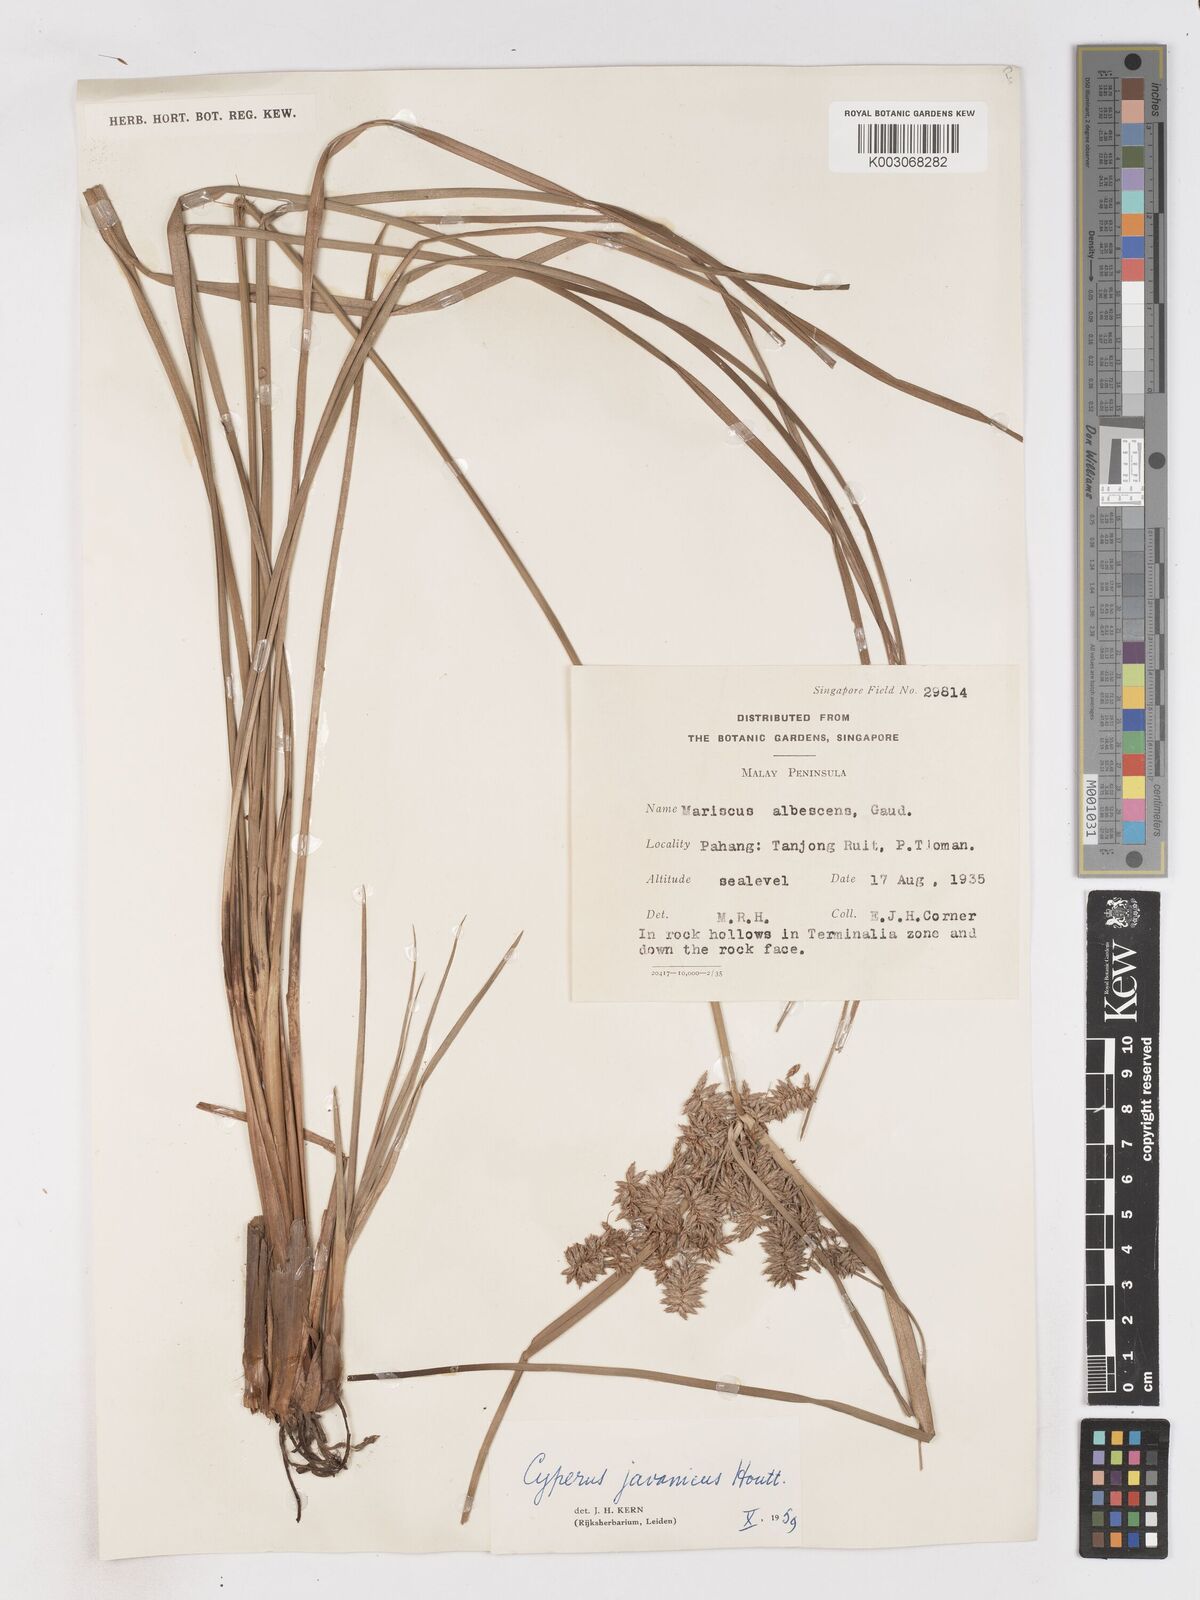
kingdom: Plantae
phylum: Tracheophyta
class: Liliopsida
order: Poales
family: Cyperaceae
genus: Cyperus
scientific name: Cyperus javanicus
